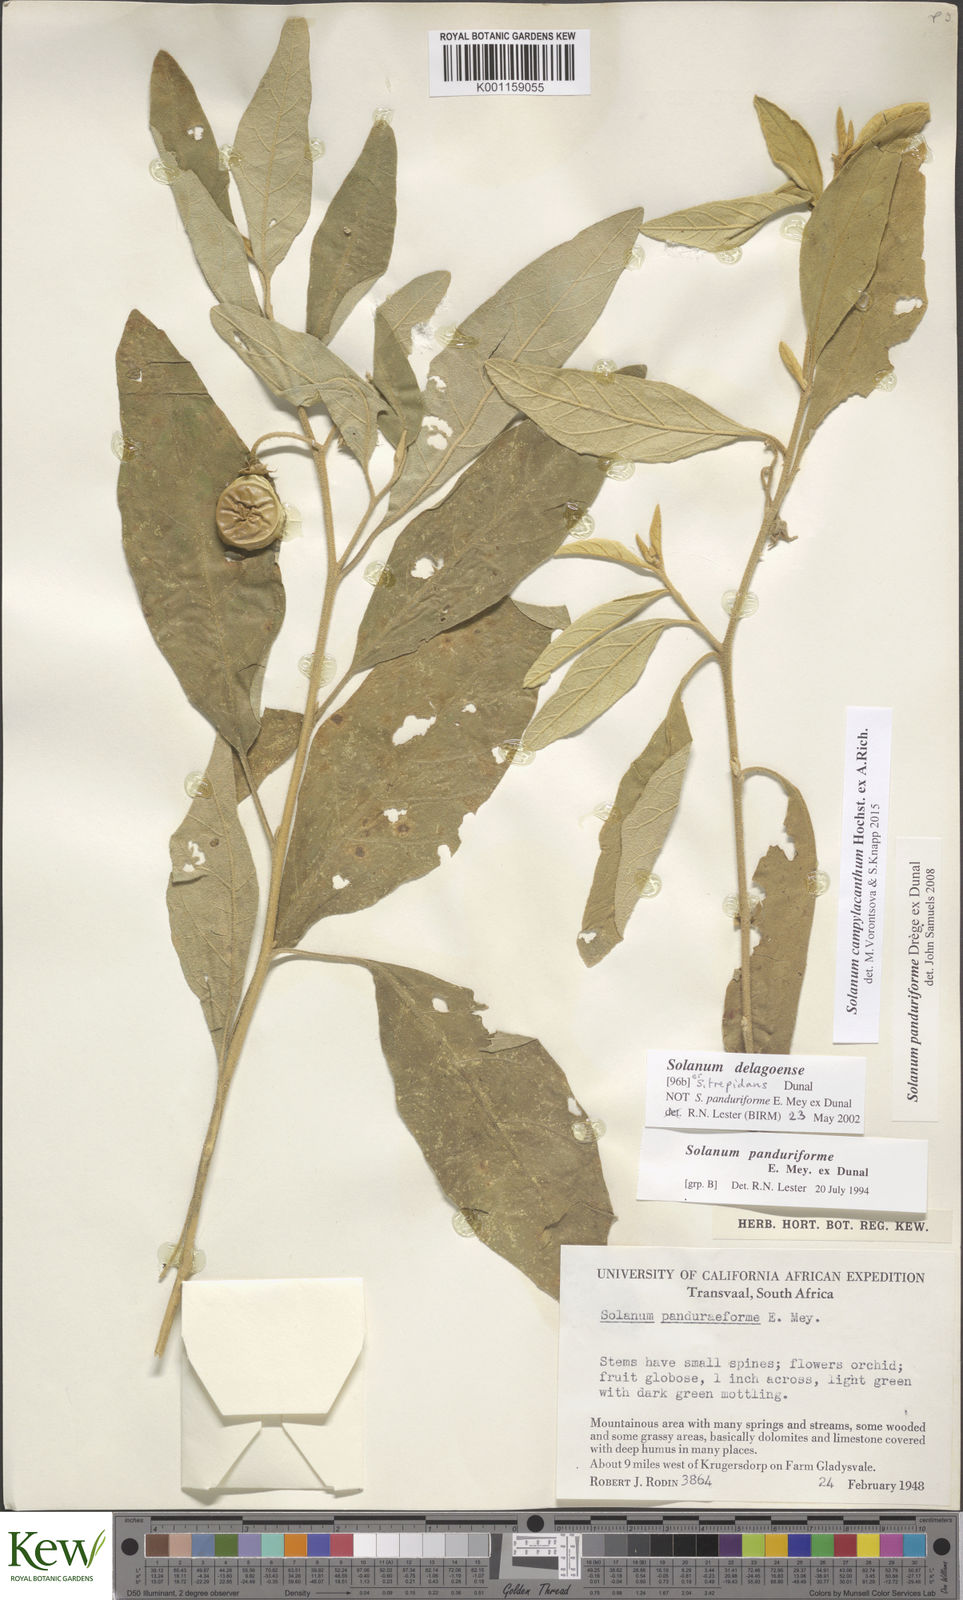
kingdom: Plantae
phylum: Tracheophyta
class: Magnoliopsida
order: Solanales
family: Solanaceae
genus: Solanum
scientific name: Solanum campylacanthum
